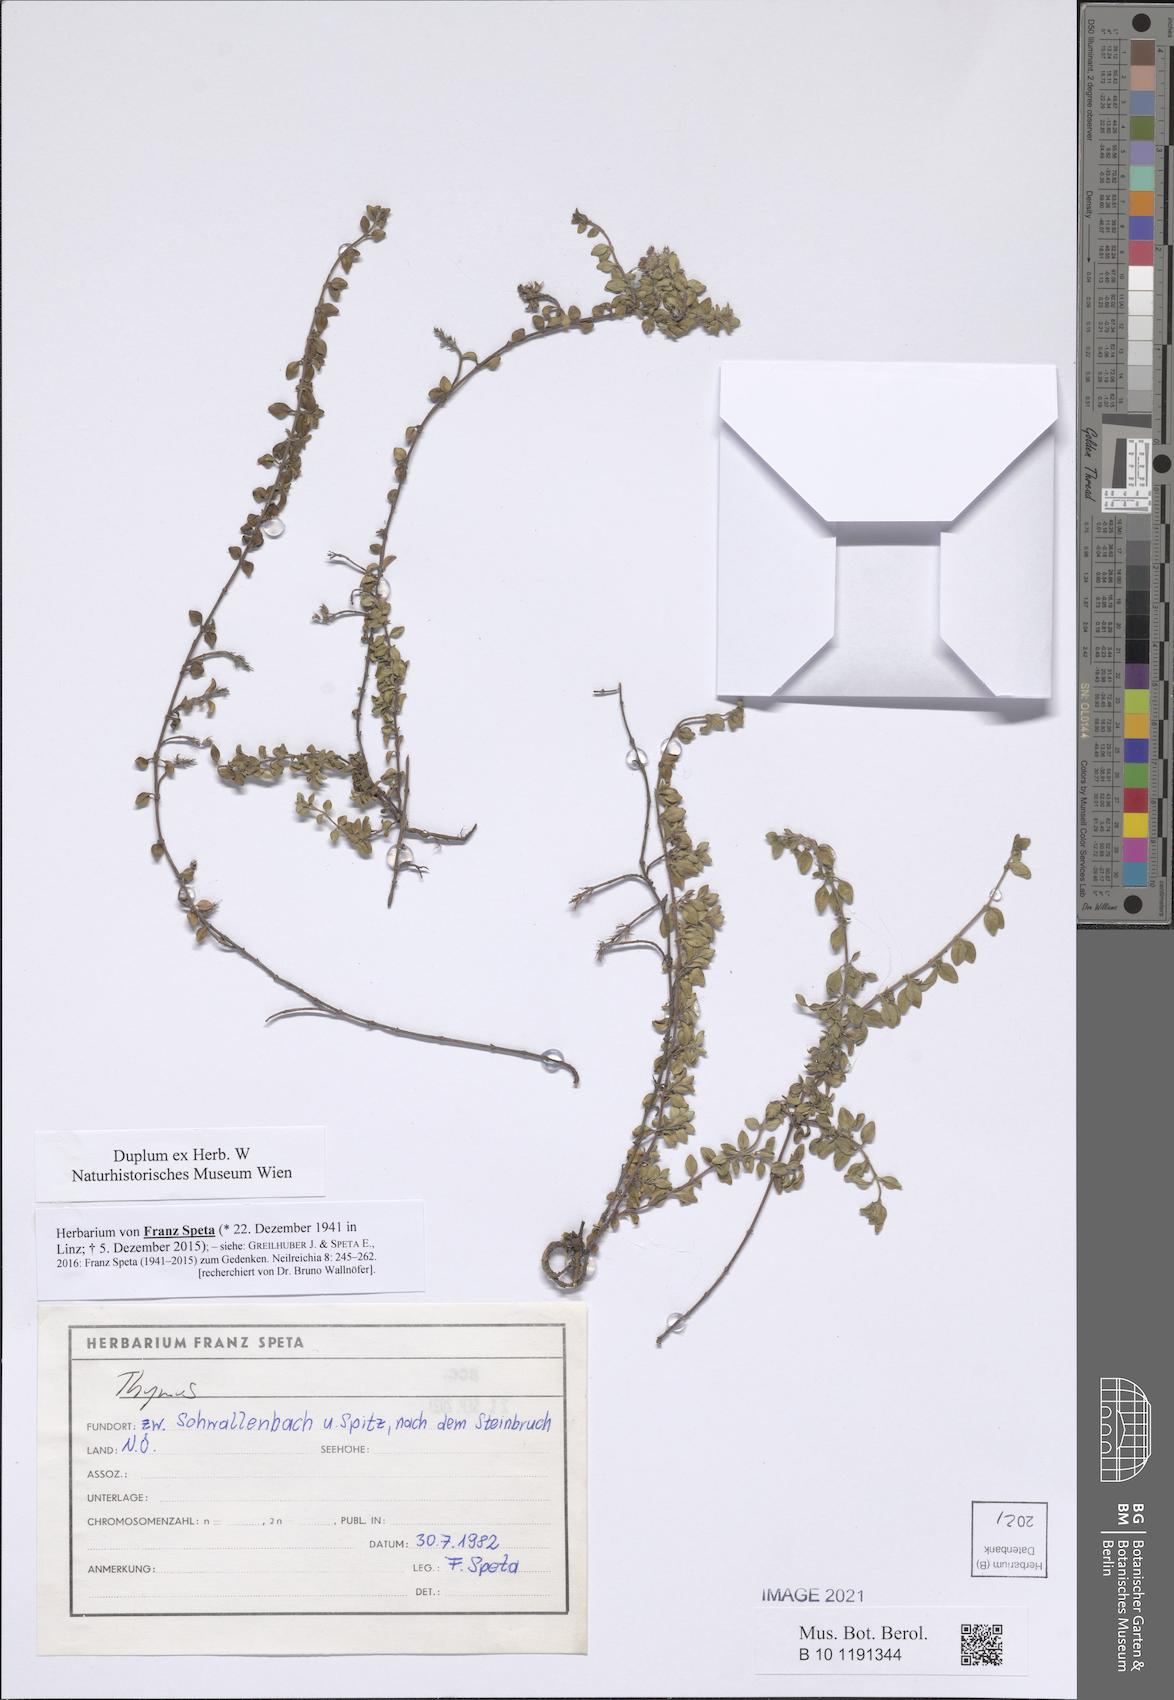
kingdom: Plantae
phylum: Tracheophyta
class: Magnoliopsida
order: Lamiales
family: Lamiaceae
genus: Thymus
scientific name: Thymus
